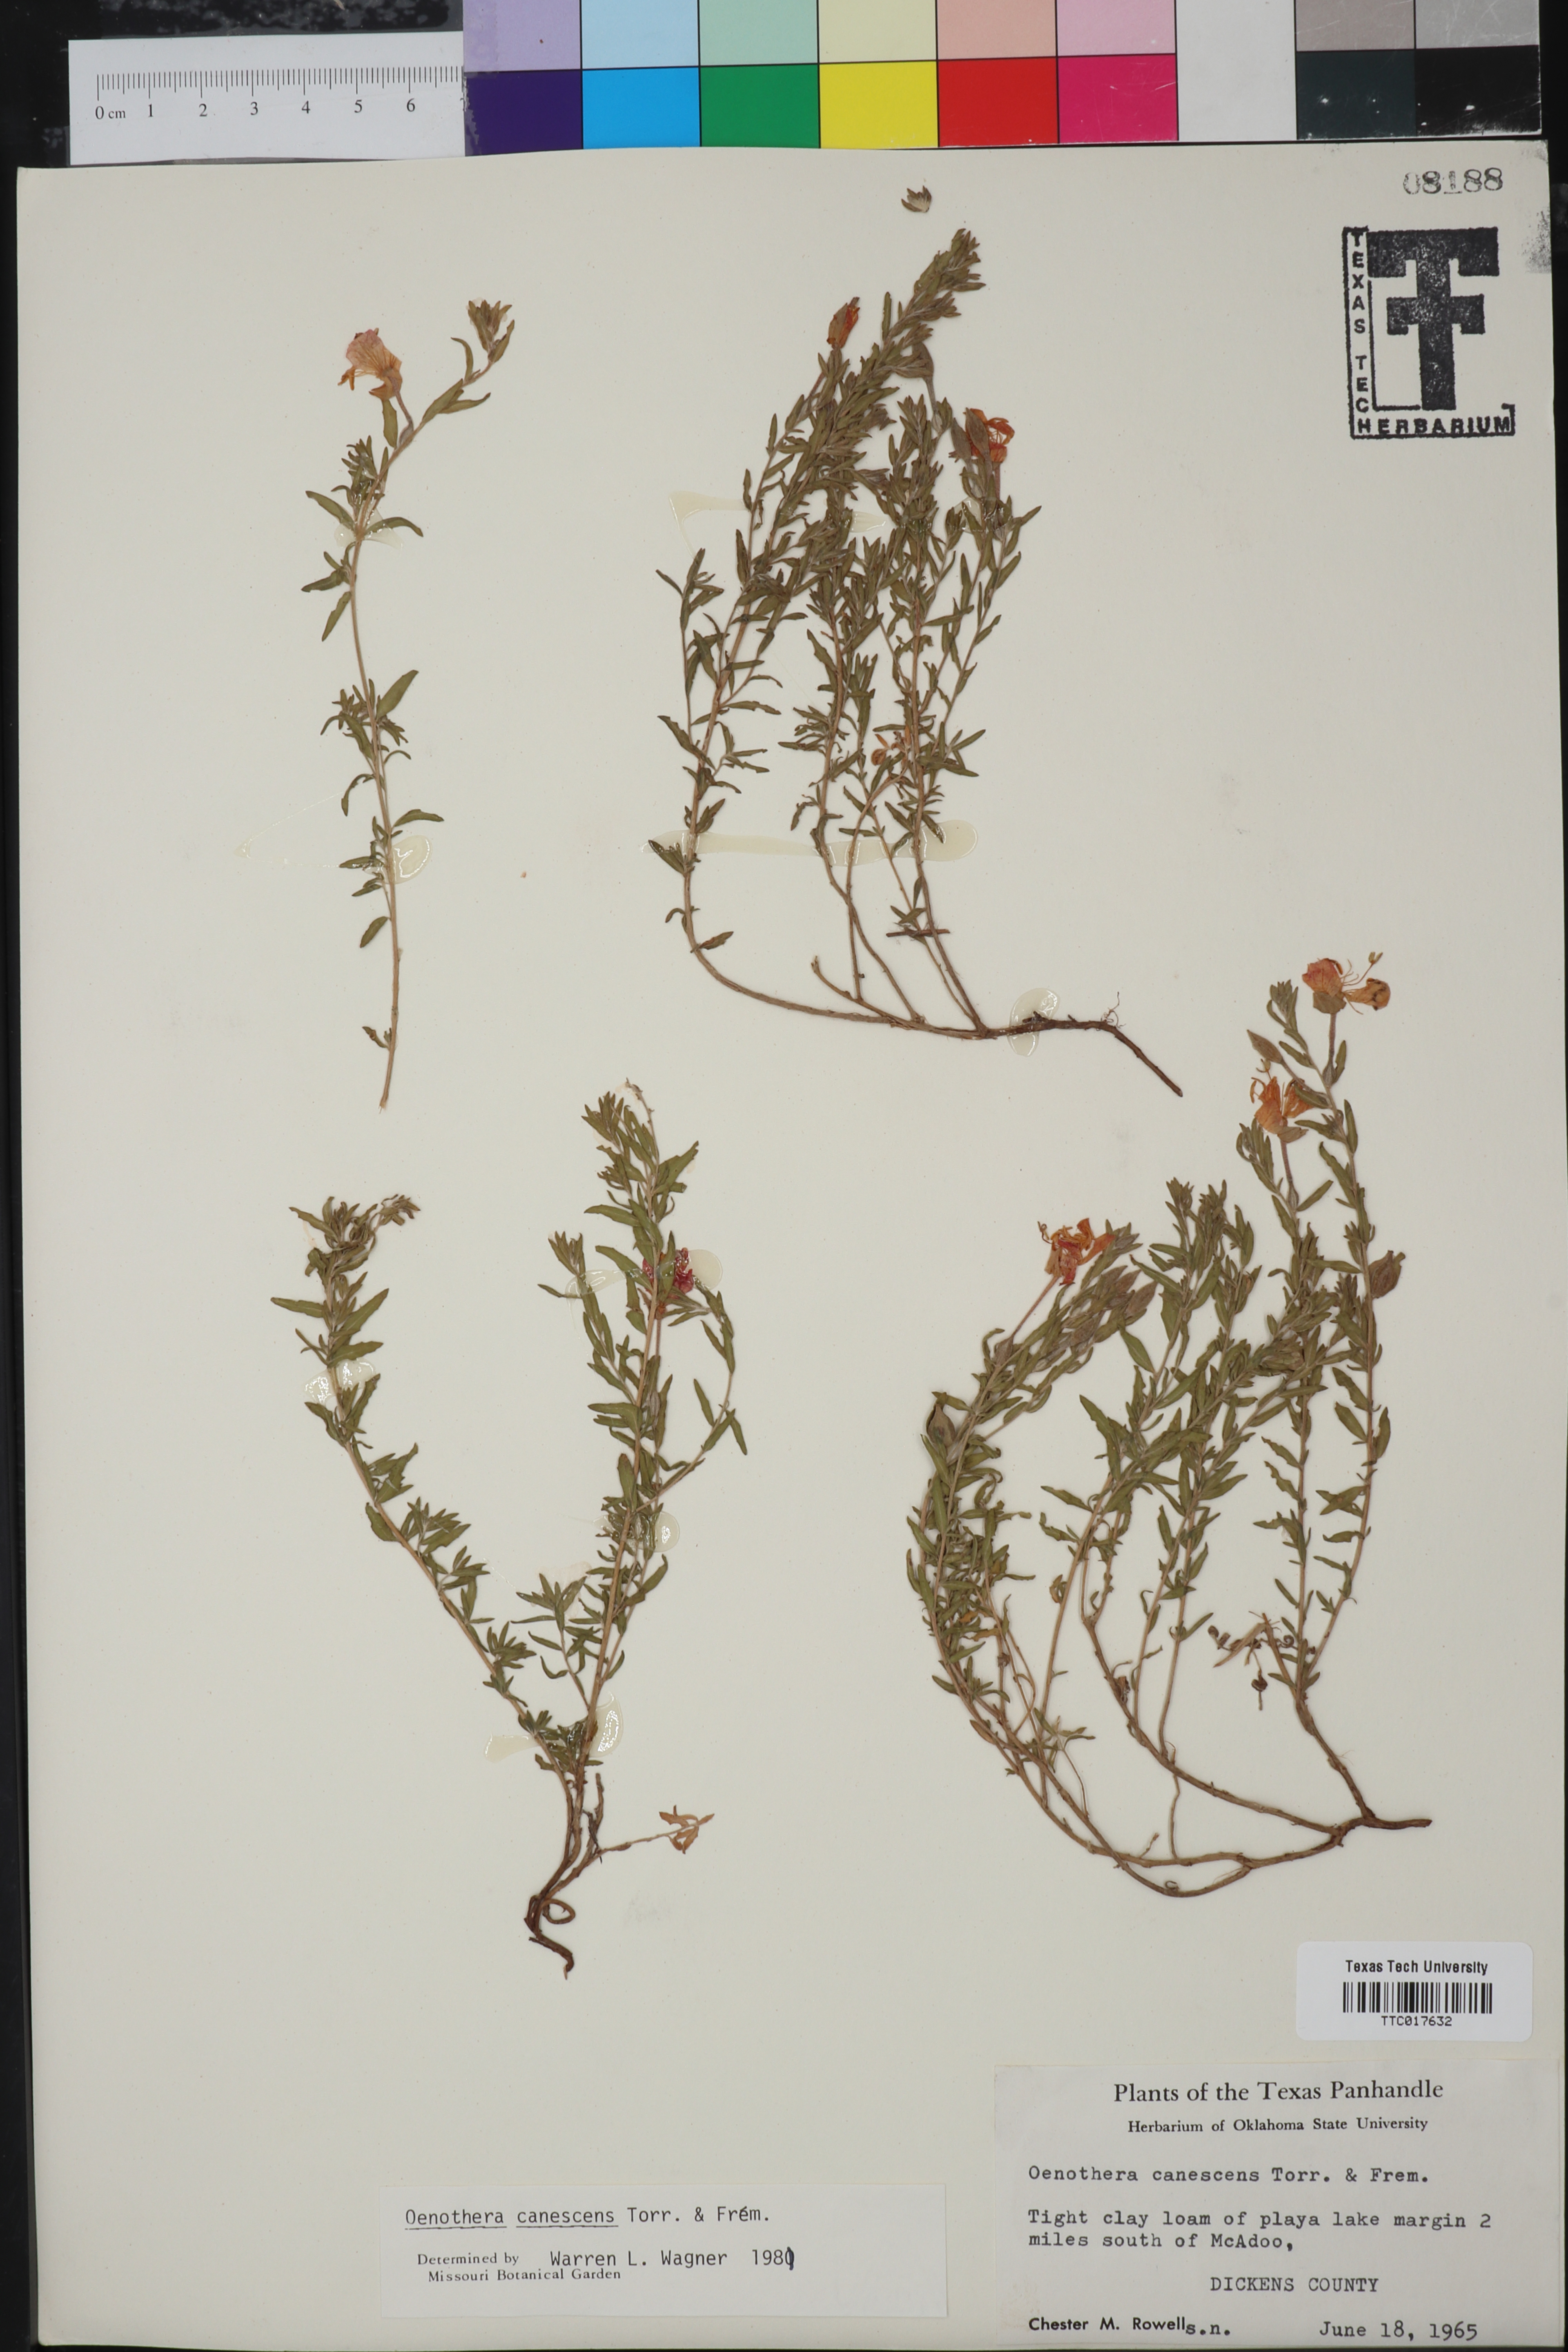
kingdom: Plantae
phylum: Tracheophyta
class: Magnoliopsida
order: Myrtales
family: Onagraceae
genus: Oenothera
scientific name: Oenothera canescens
